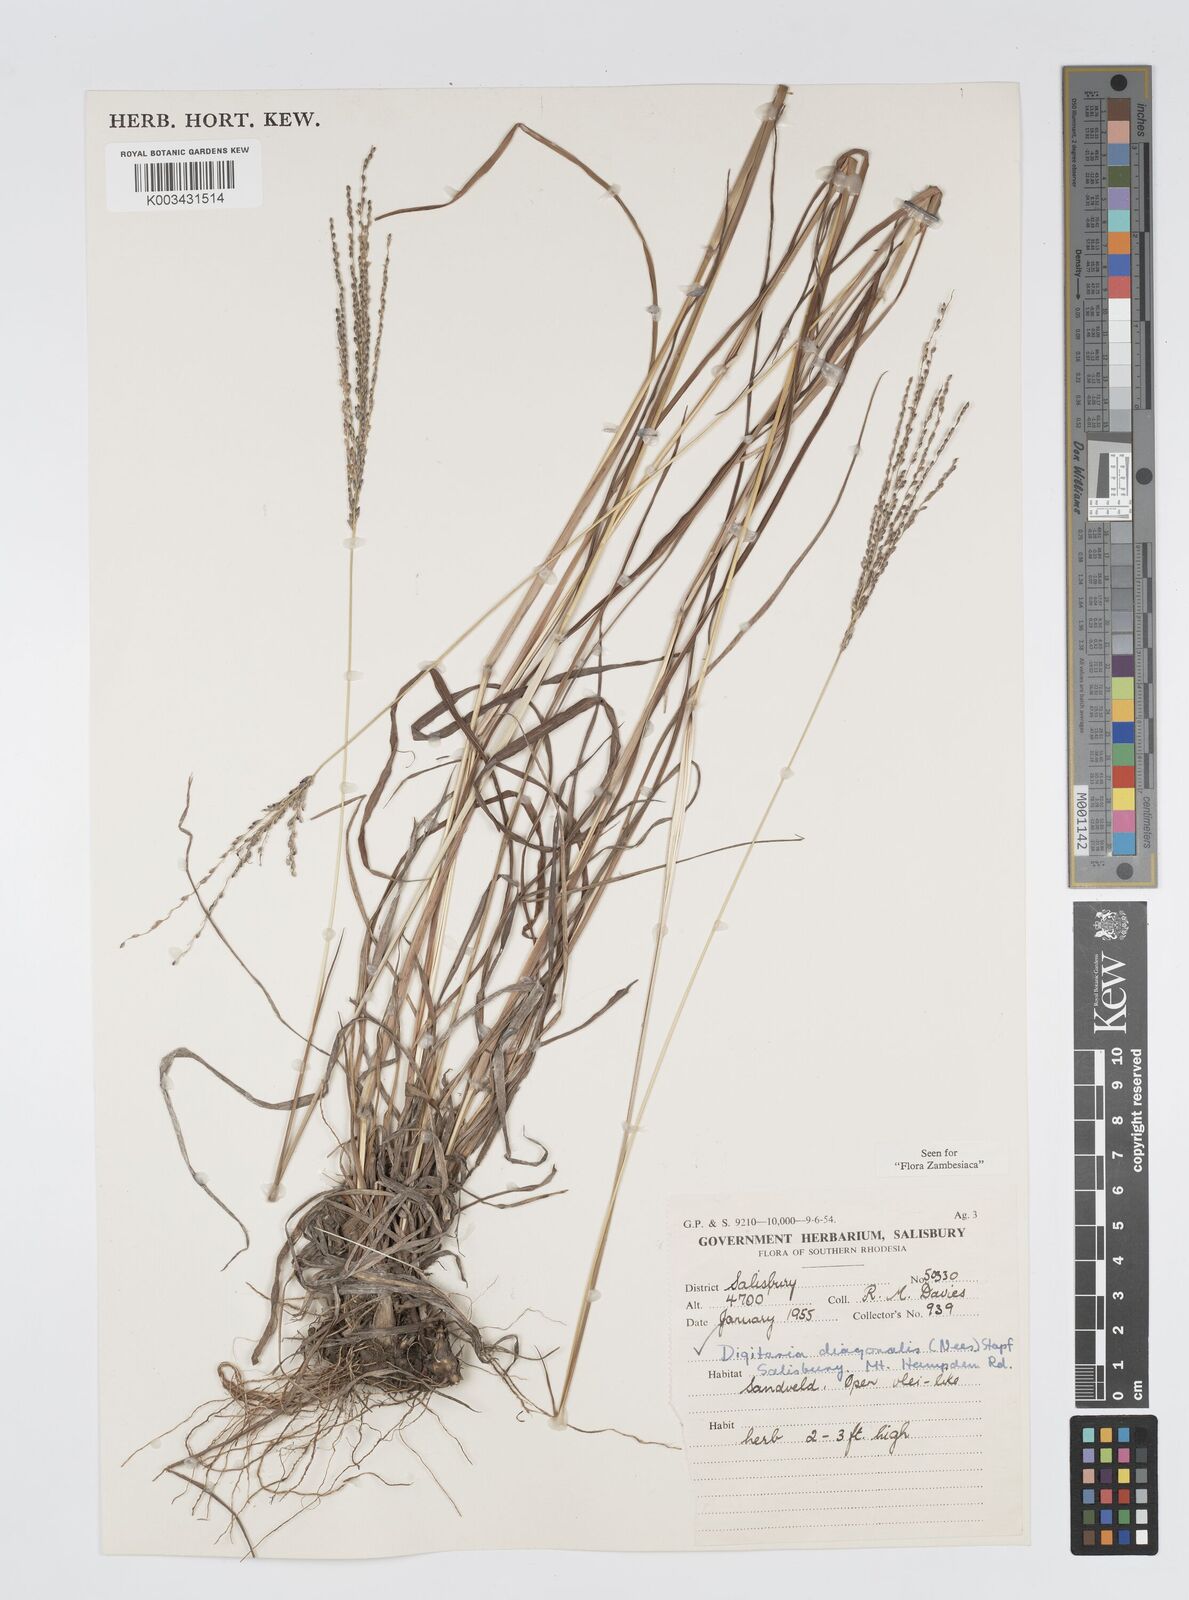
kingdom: Plantae
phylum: Tracheophyta
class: Liliopsida
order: Poales
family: Poaceae
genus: Digitaria
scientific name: Digitaria gazensis
